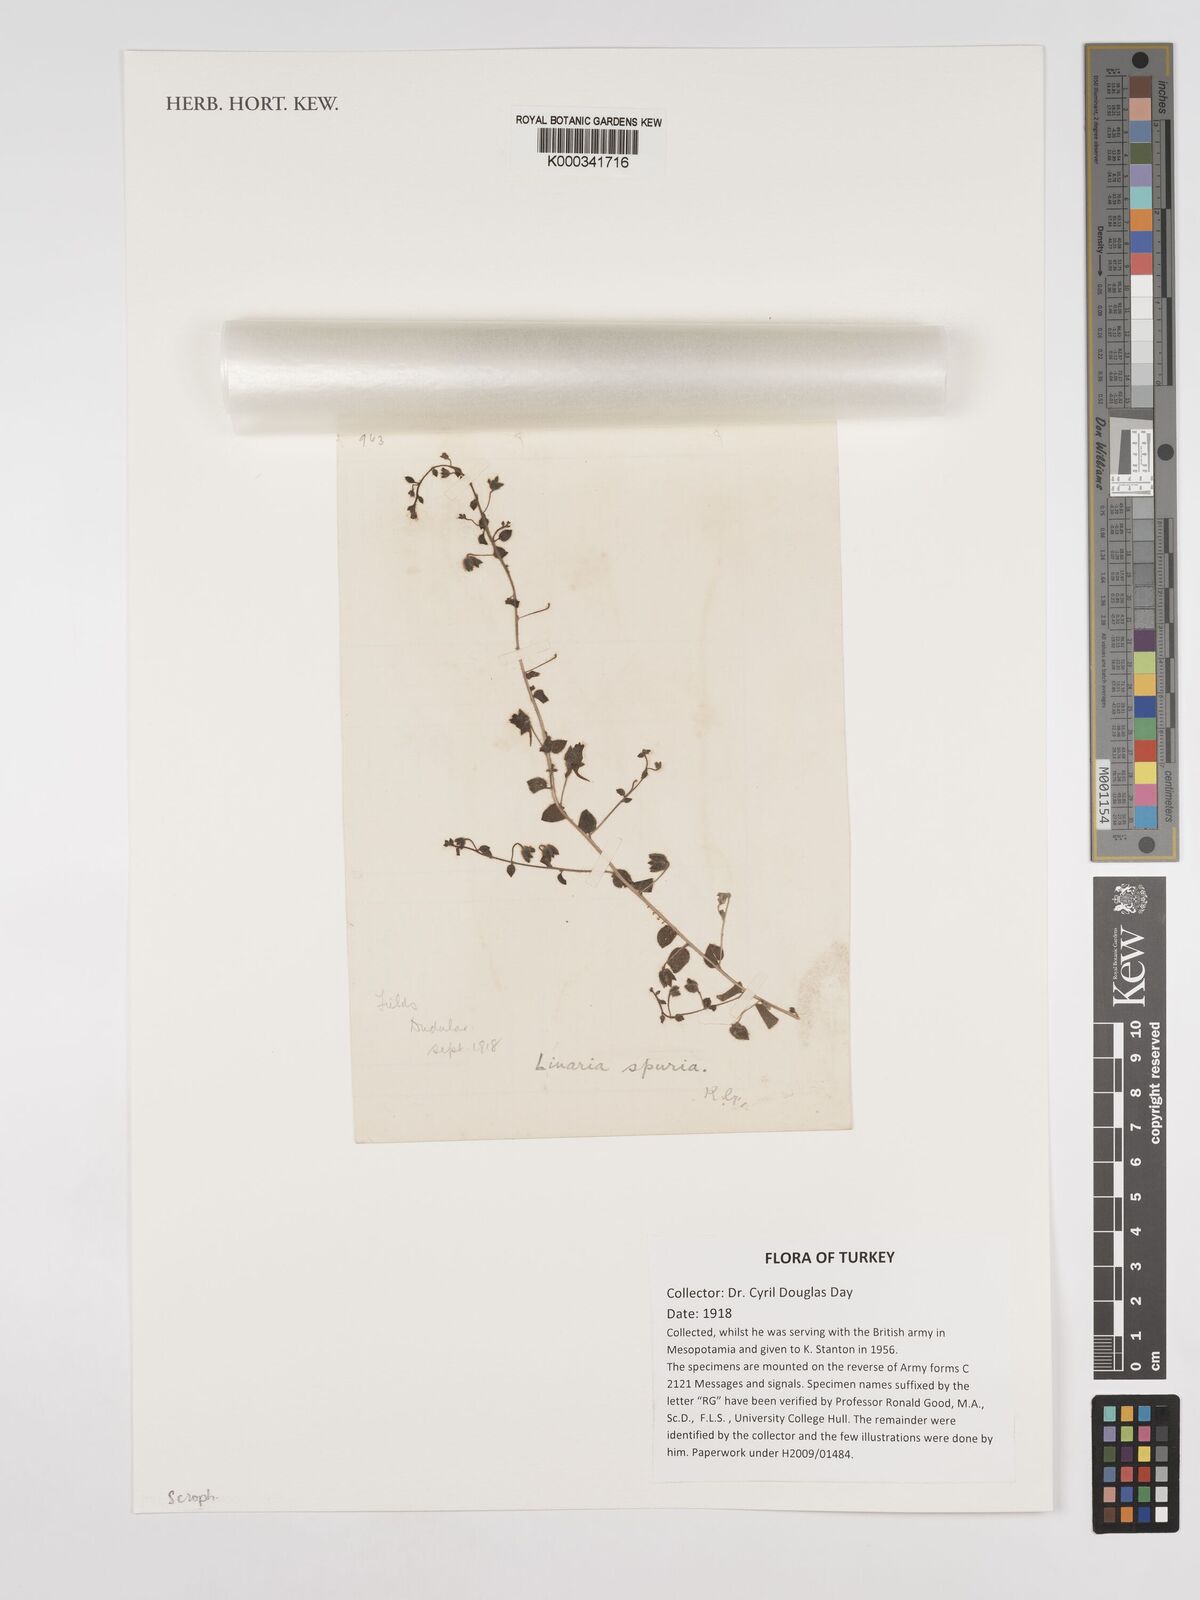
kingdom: Plantae
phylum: Tracheophyta
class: Magnoliopsida
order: Lamiales
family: Plantaginaceae
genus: Kickxia
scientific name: Kickxia spuria
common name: Round-leaved fluellen
